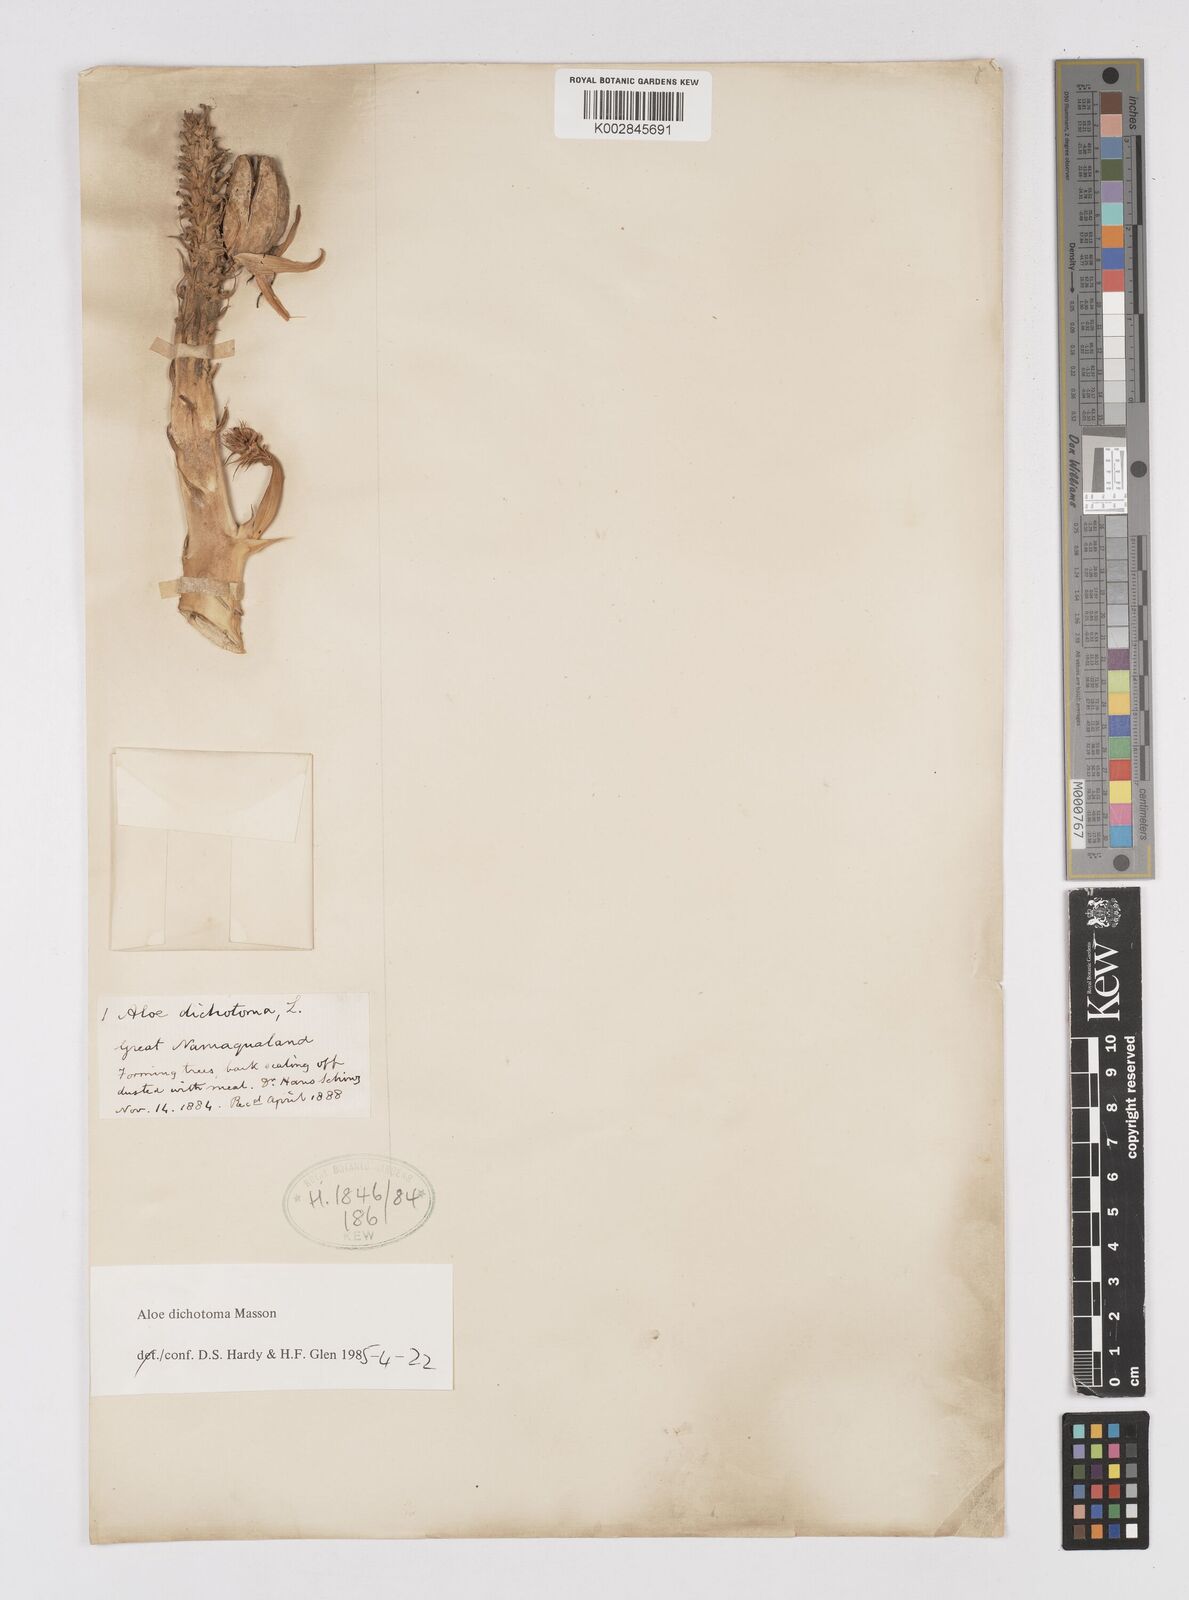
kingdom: Plantae
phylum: Tracheophyta
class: Liliopsida
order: Asparagales
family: Asphodelaceae
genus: Aloidendron
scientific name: Aloidendron dichotomum
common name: Quiver tree
